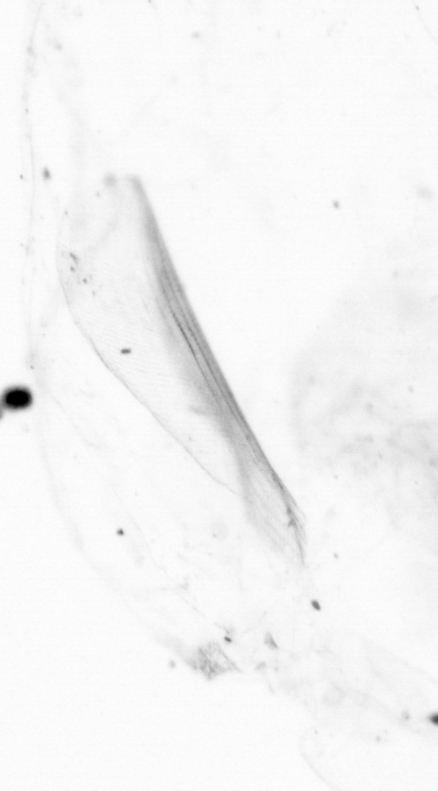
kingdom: Chromista
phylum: Ochrophyta
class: Bacillariophyceae
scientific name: Bacillariophyceae
